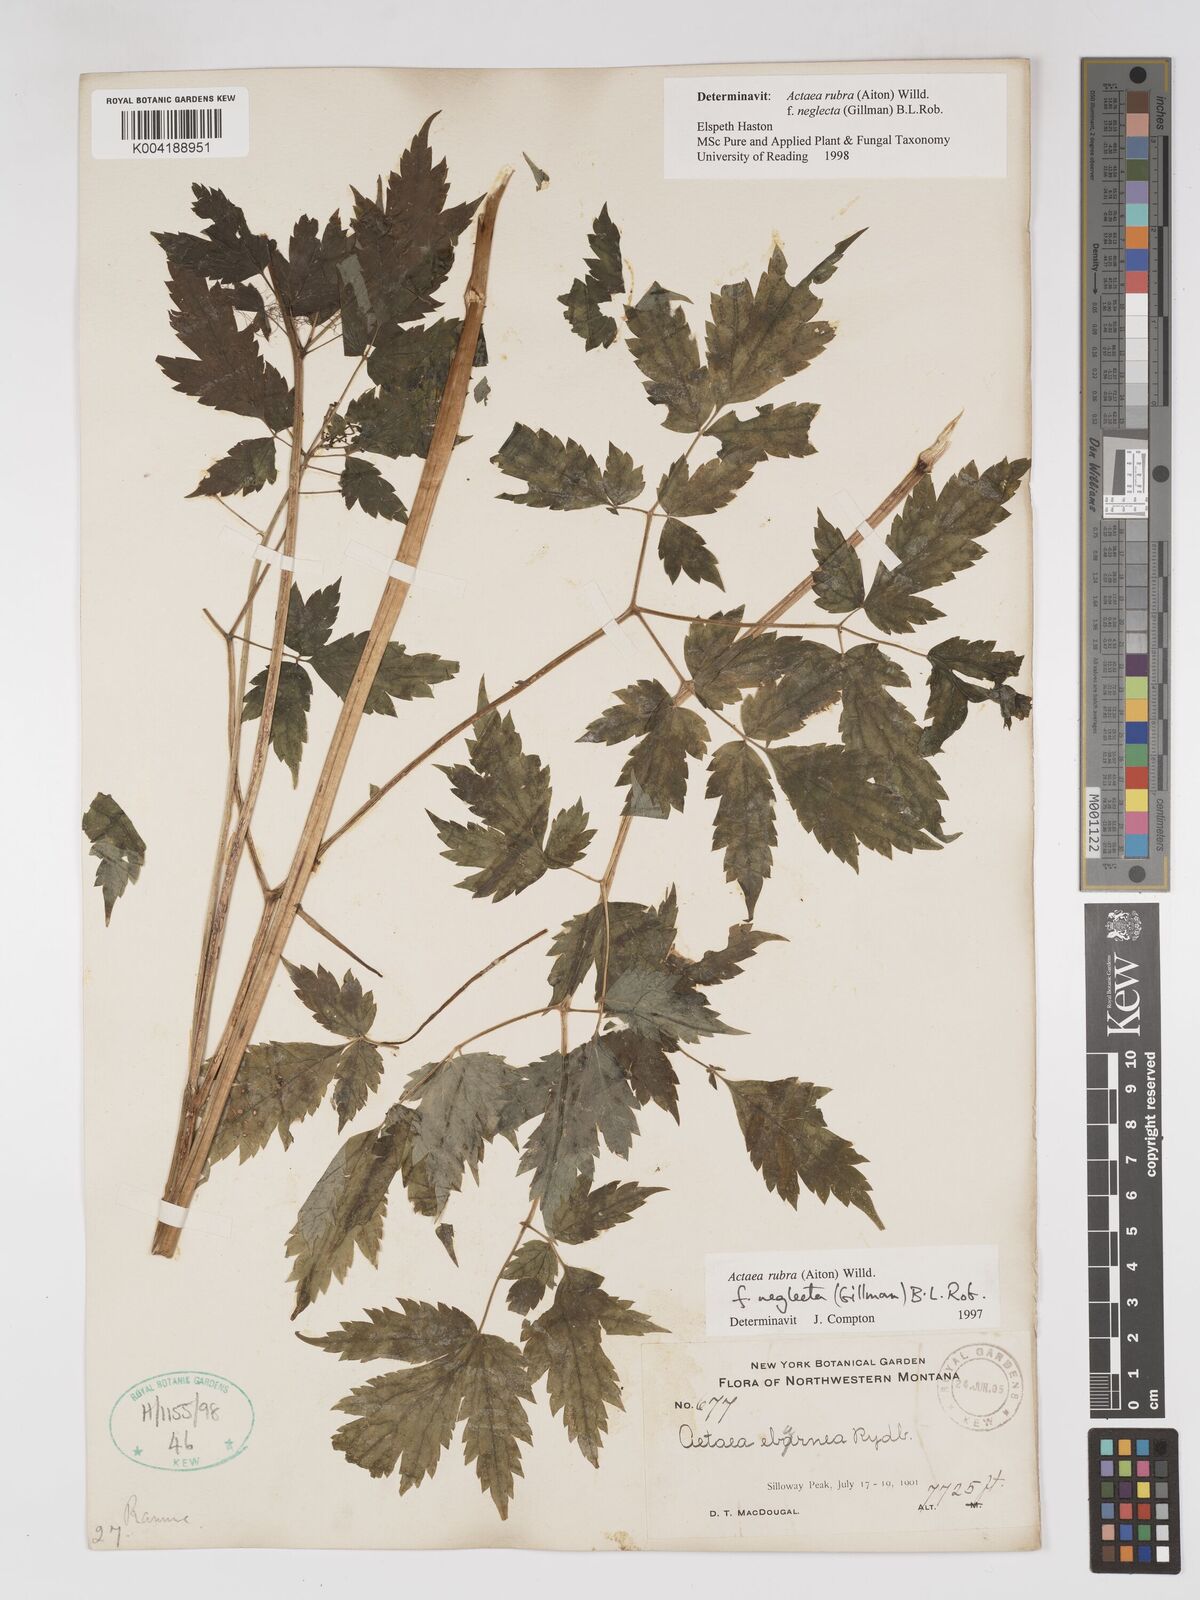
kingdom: Plantae
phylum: Tracheophyta
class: Magnoliopsida
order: Ranunculales
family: Ranunculaceae
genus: Actaea
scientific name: Actaea rubra
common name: Red baneberry
